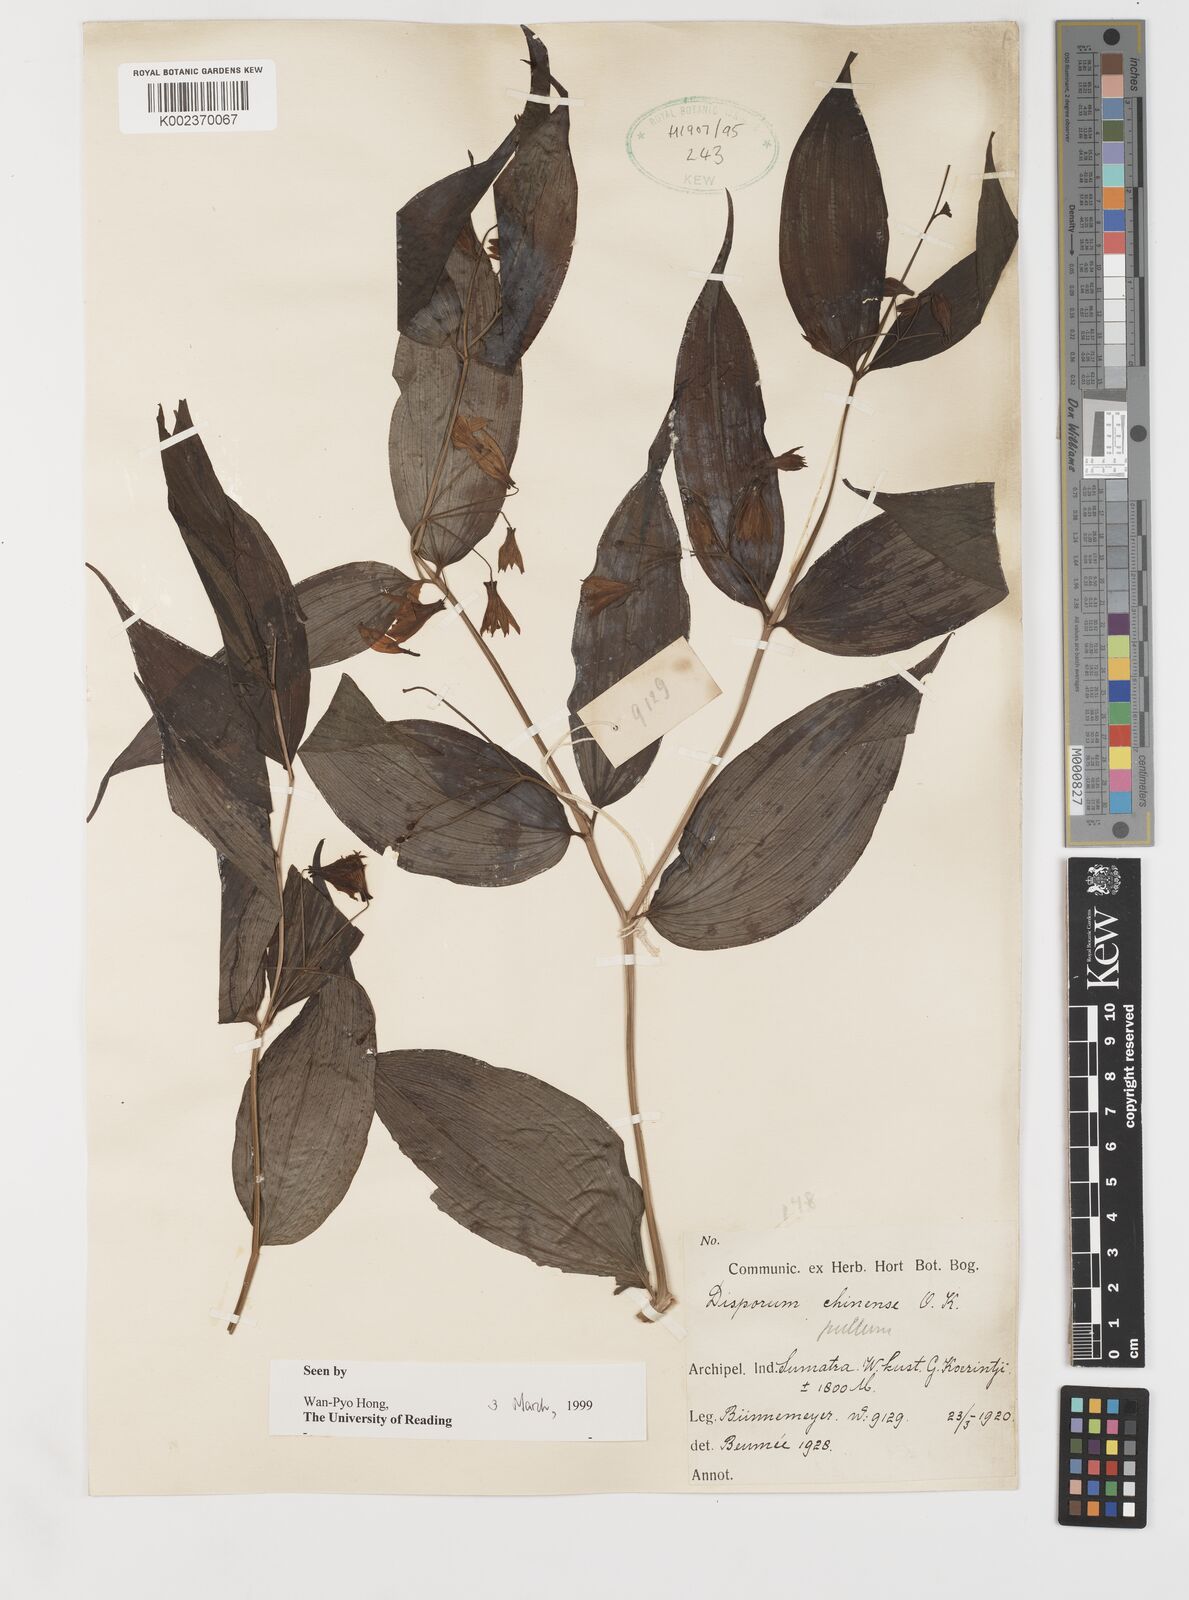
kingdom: Plantae
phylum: Tracheophyta
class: Liliopsida
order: Liliales
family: Colchicaceae
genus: Disporum
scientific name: Disporum cantoniense
